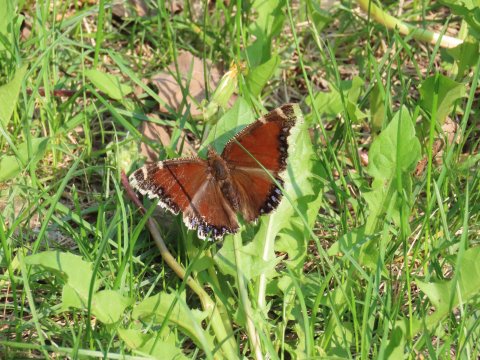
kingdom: Animalia
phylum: Arthropoda
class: Insecta
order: Lepidoptera
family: Nymphalidae
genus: Nymphalis
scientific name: Nymphalis antiopa
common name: Mourning Cloak
